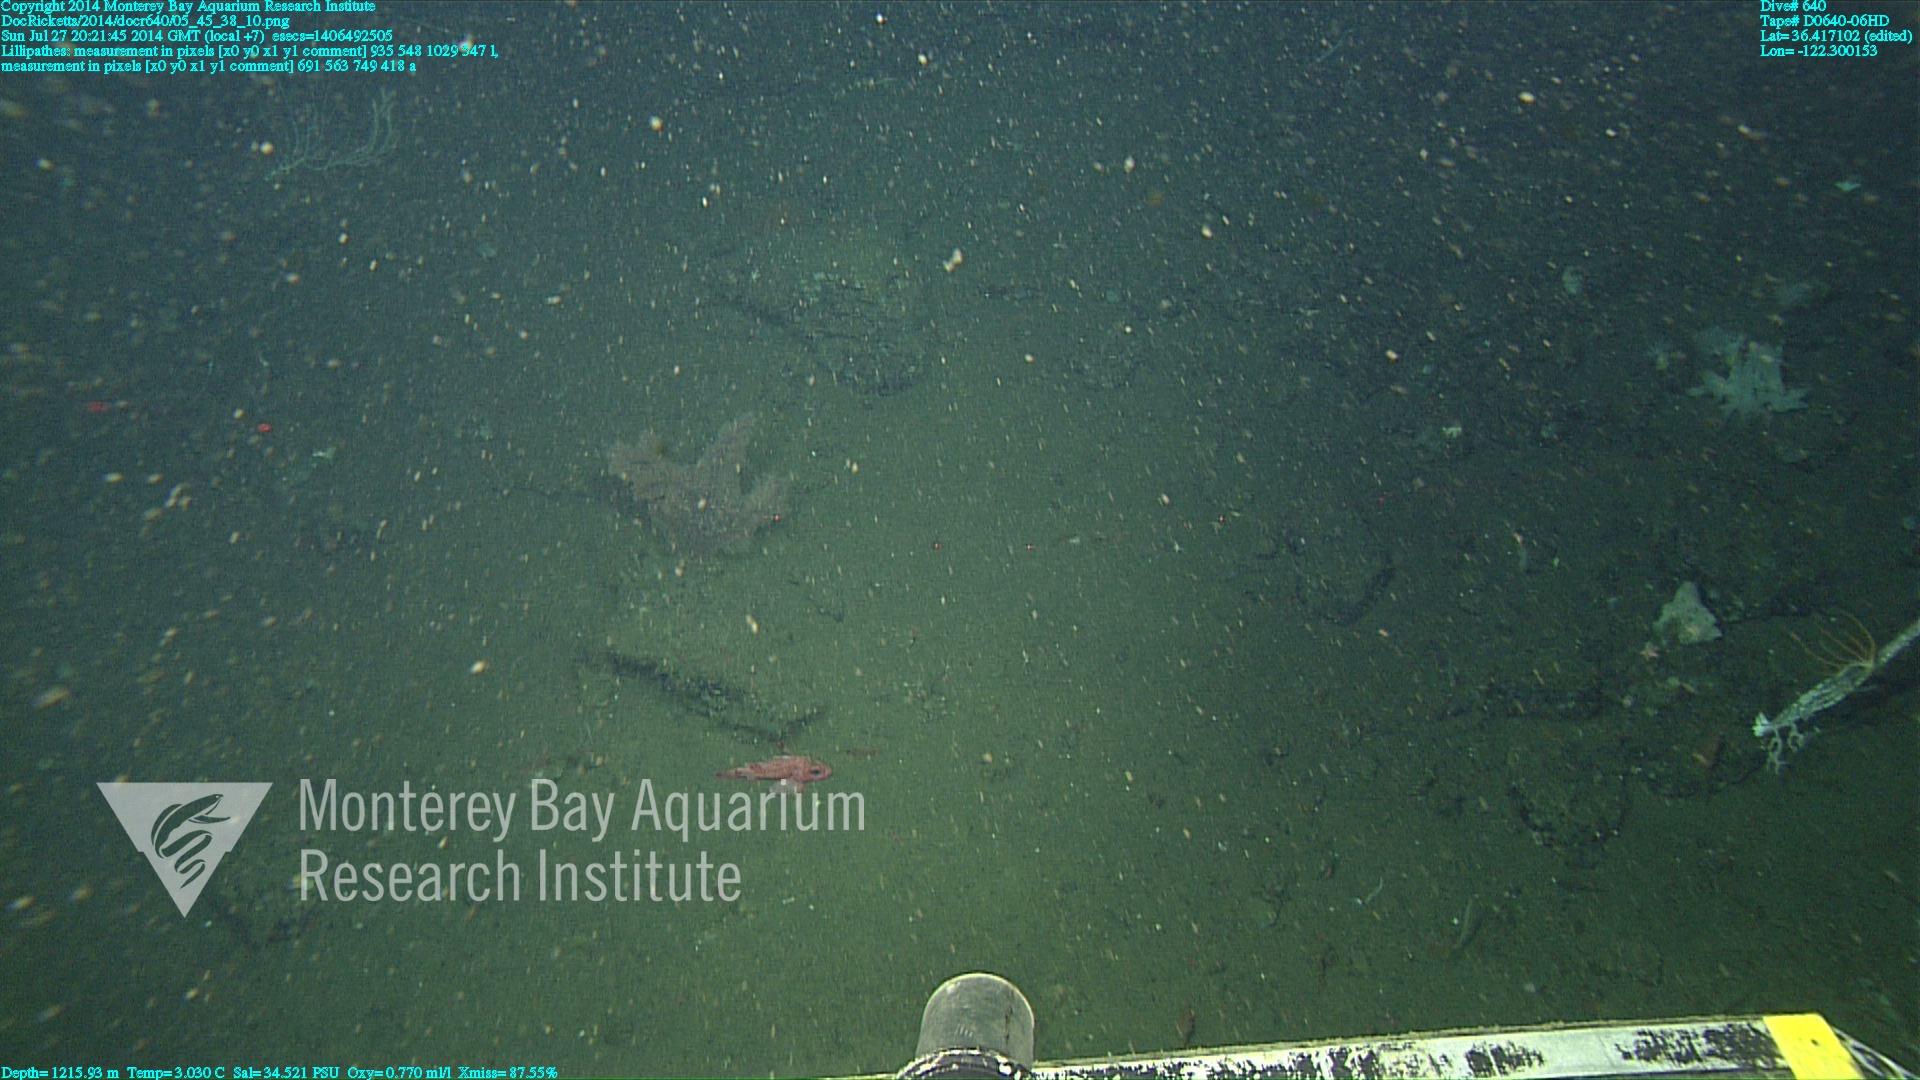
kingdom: Animalia
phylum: Cnidaria
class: Anthozoa
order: Antipatharia
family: Schizopathidae
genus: Lillipathes
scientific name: Lillipathes
